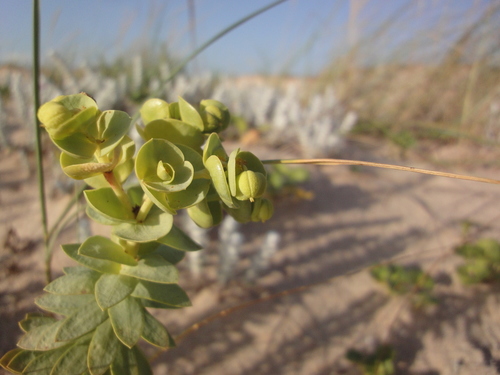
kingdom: Plantae
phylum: Tracheophyta
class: Magnoliopsida
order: Malpighiales
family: Euphorbiaceae
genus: Euphorbia
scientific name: Euphorbia paralias
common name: Sea spurge
